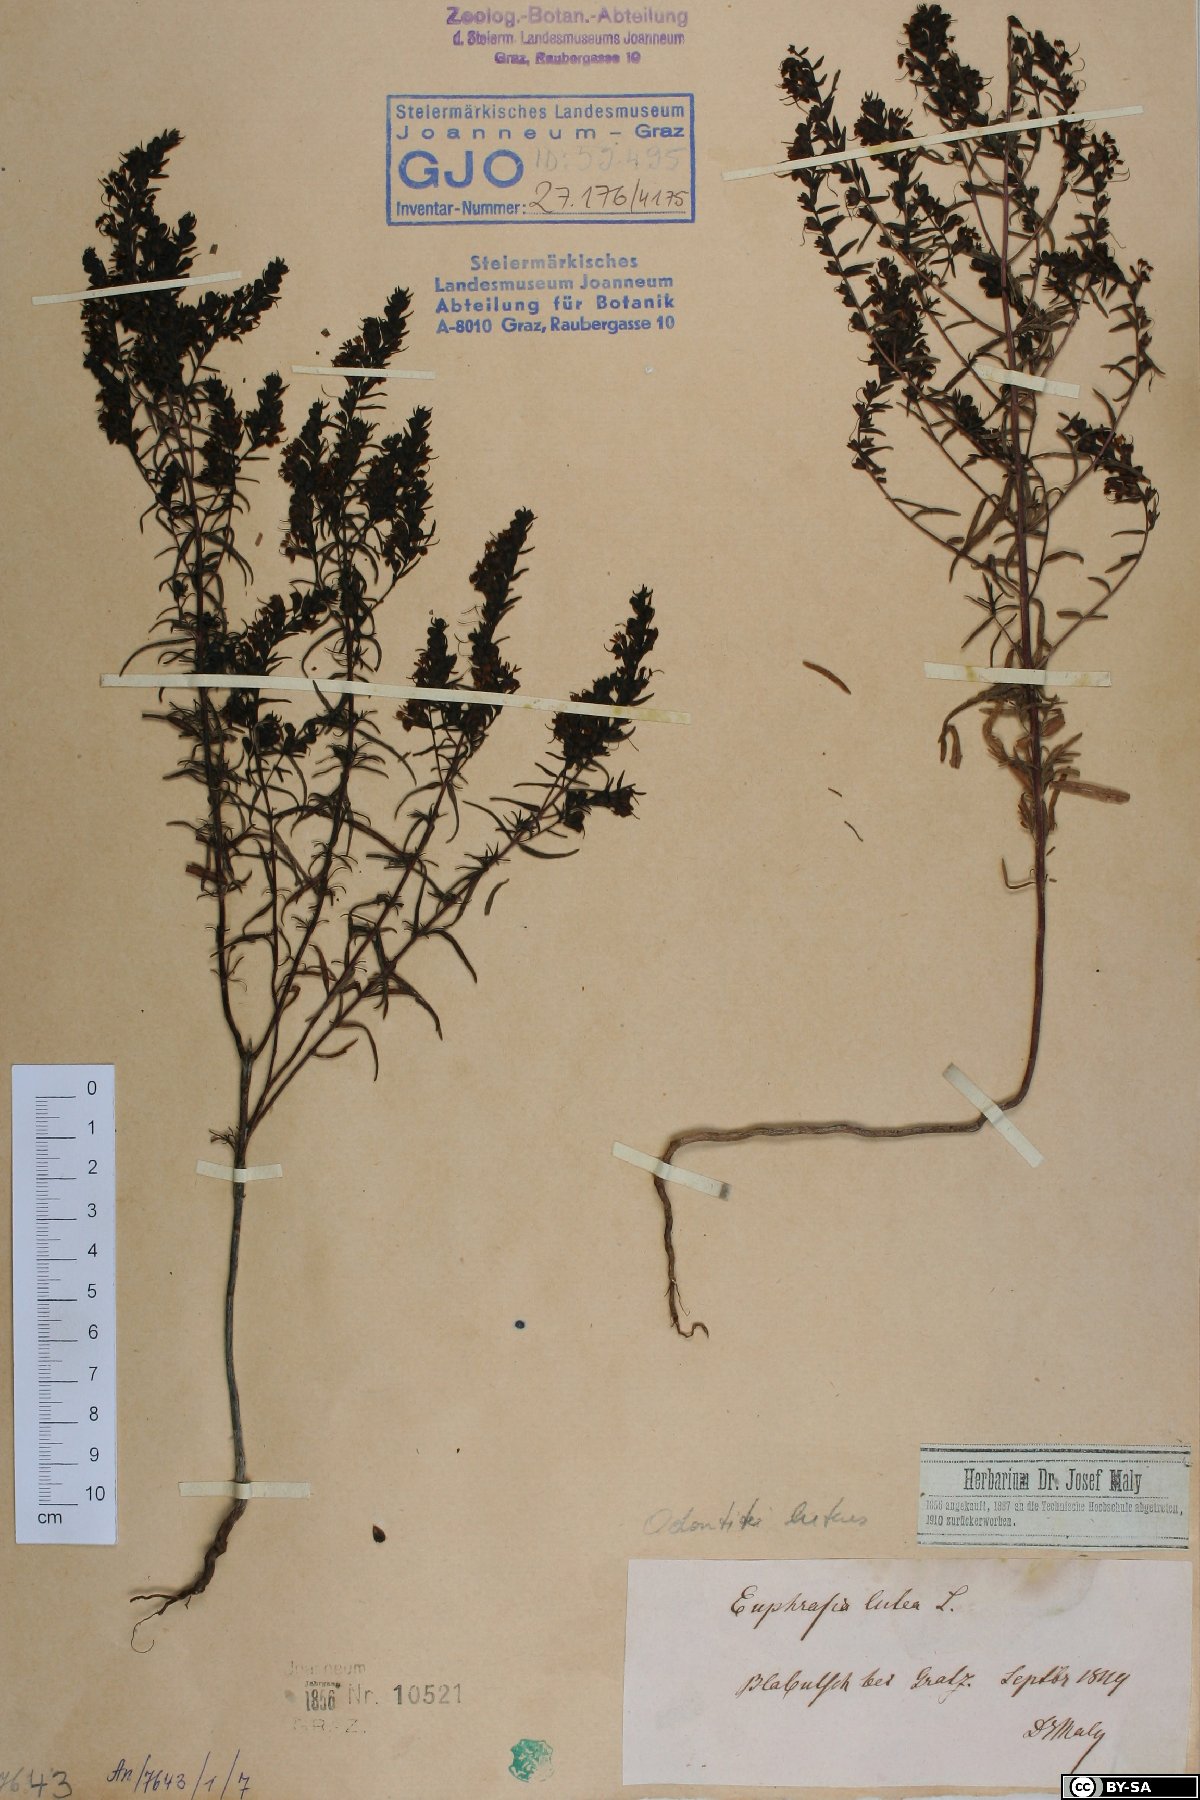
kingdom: Plantae
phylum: Tracheophyta
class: Magnoliopsida
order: Lamiales
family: Orobanchaceae
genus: Odontites
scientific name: Odontites luteus
